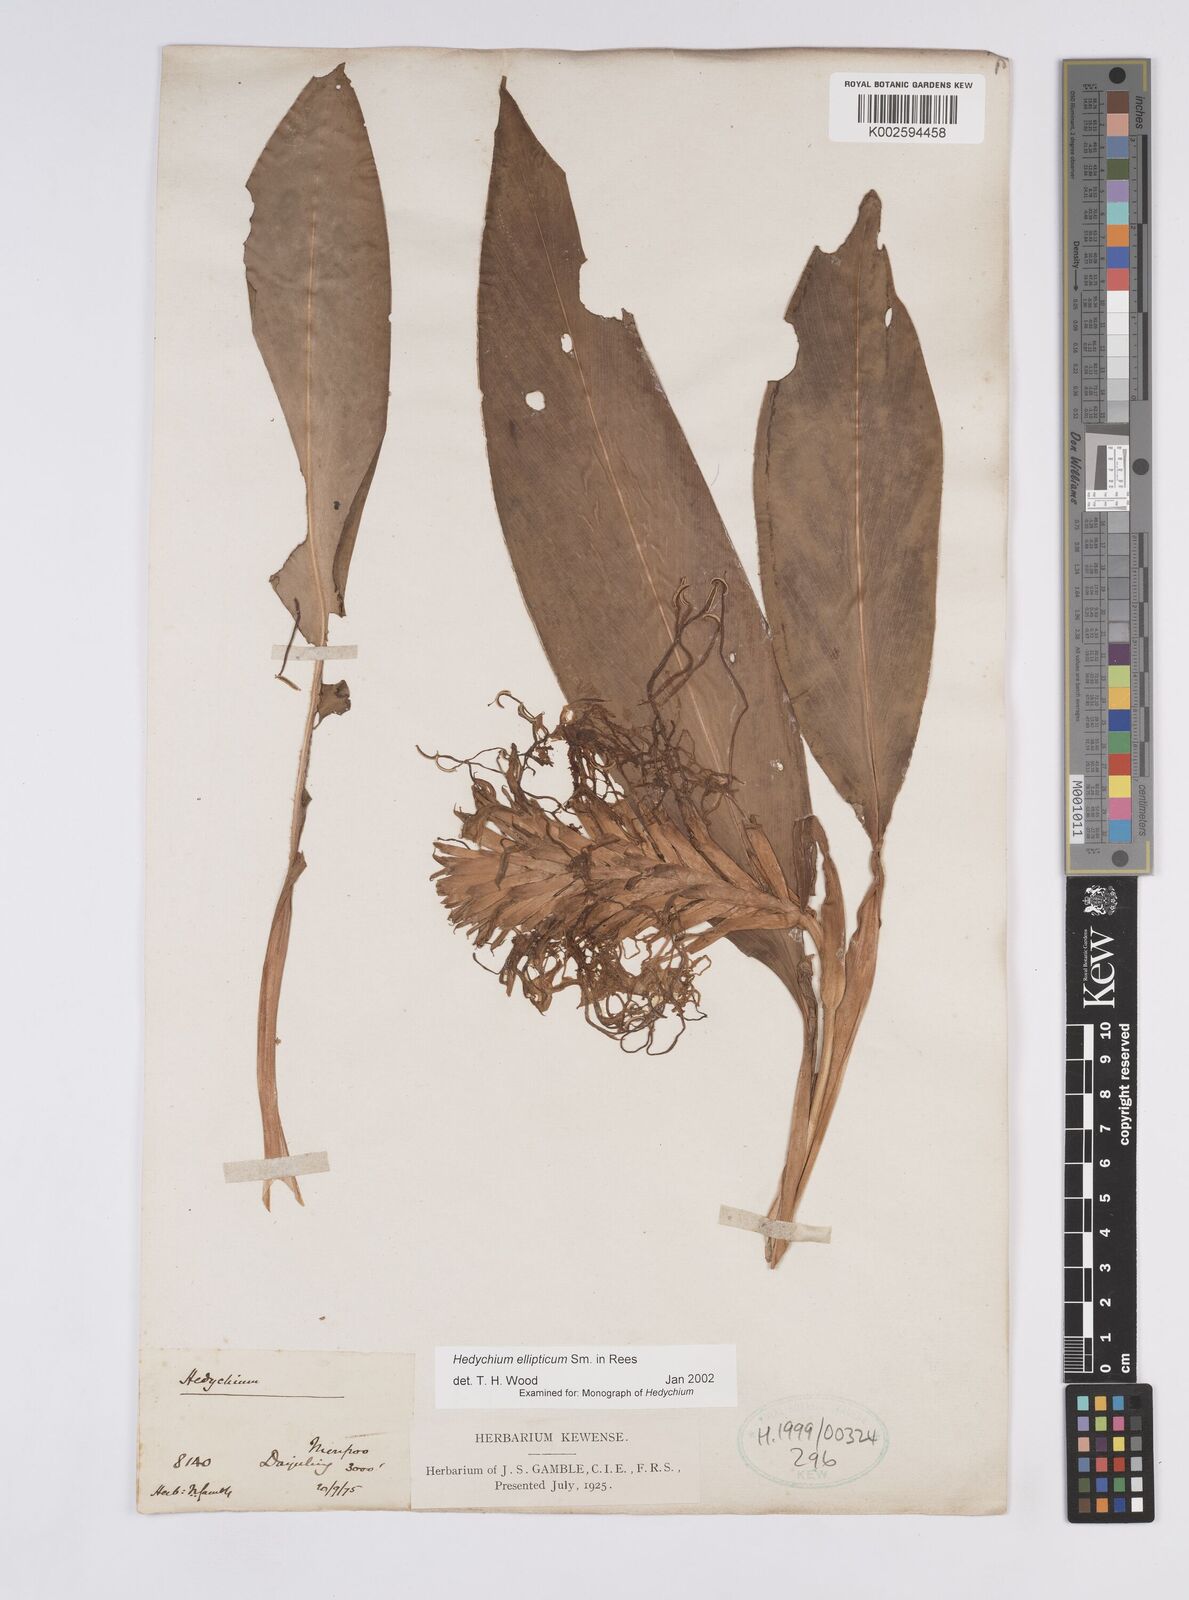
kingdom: Plantae
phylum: Tracheophyta
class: Liliopsida
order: Zingiberales
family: Zingiberaceae
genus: Hedychium
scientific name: Hedychium ellipticum
